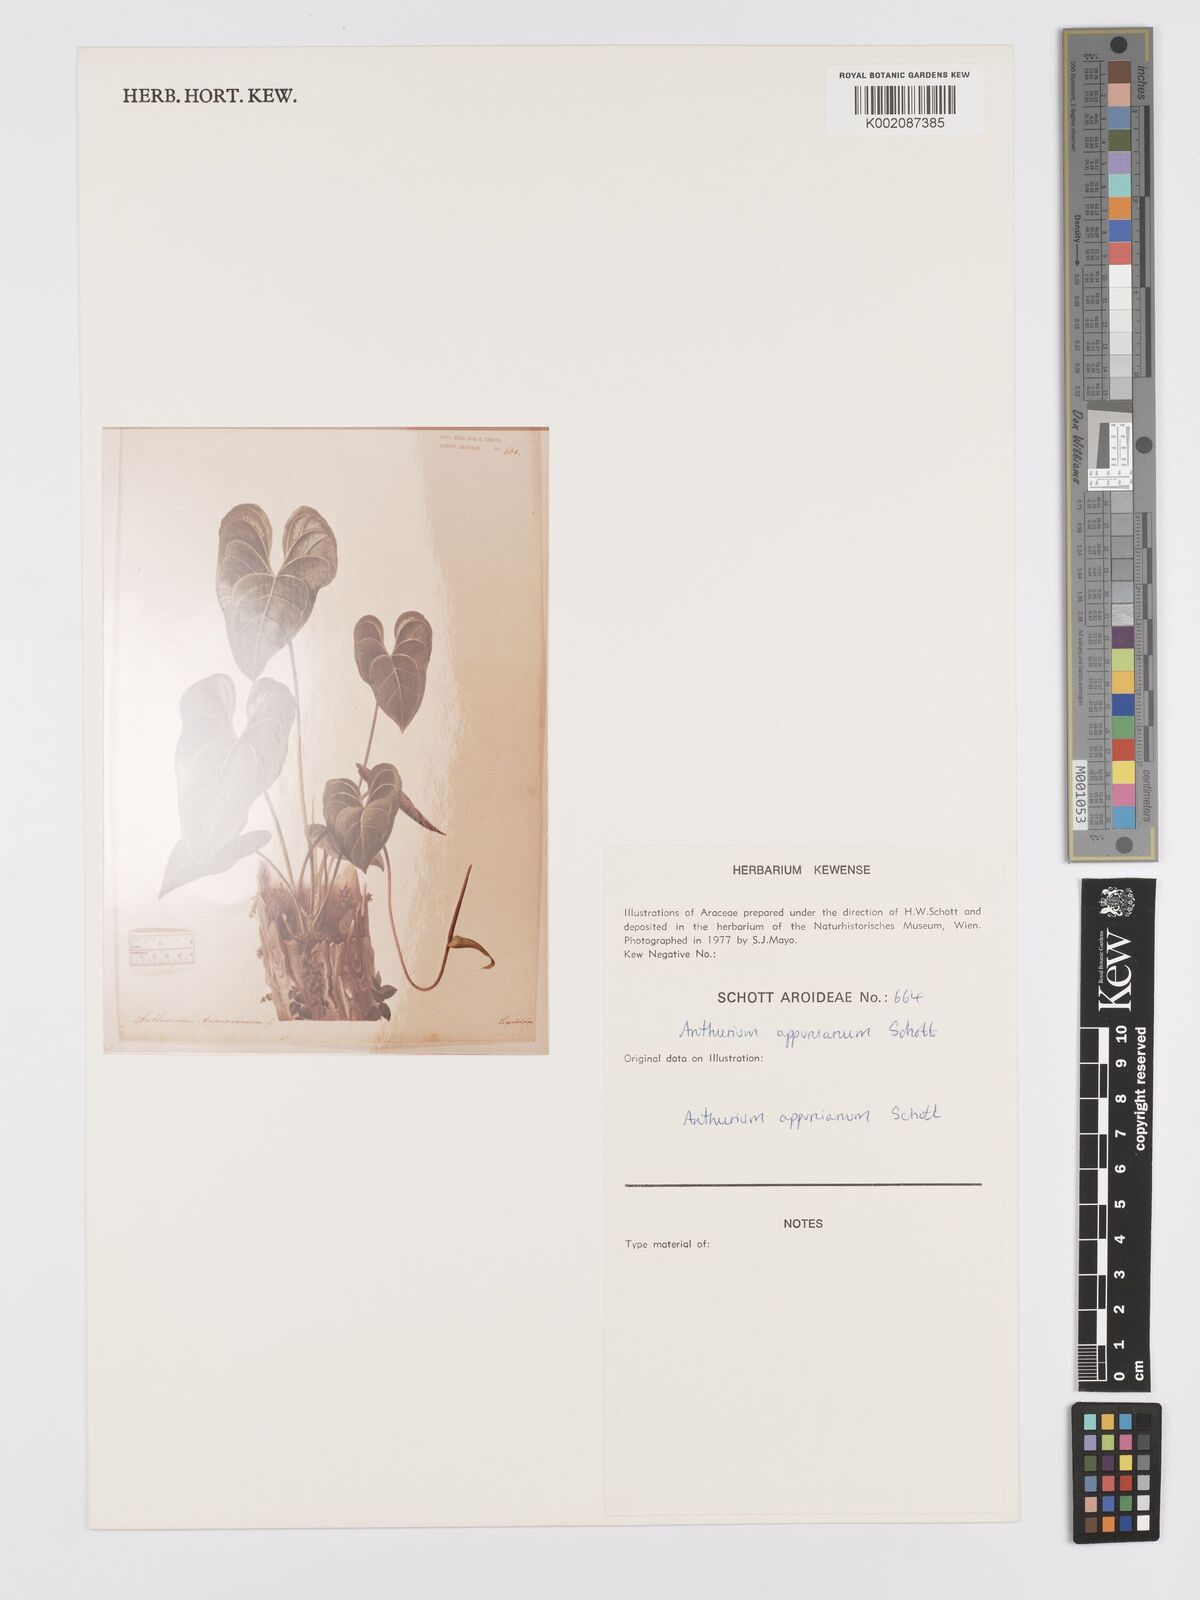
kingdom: Plantae
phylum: Tracheophyta
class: Liliopsida
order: Alismatales
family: Araceae
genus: Anthurium
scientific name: Anthurium cartilagineum
